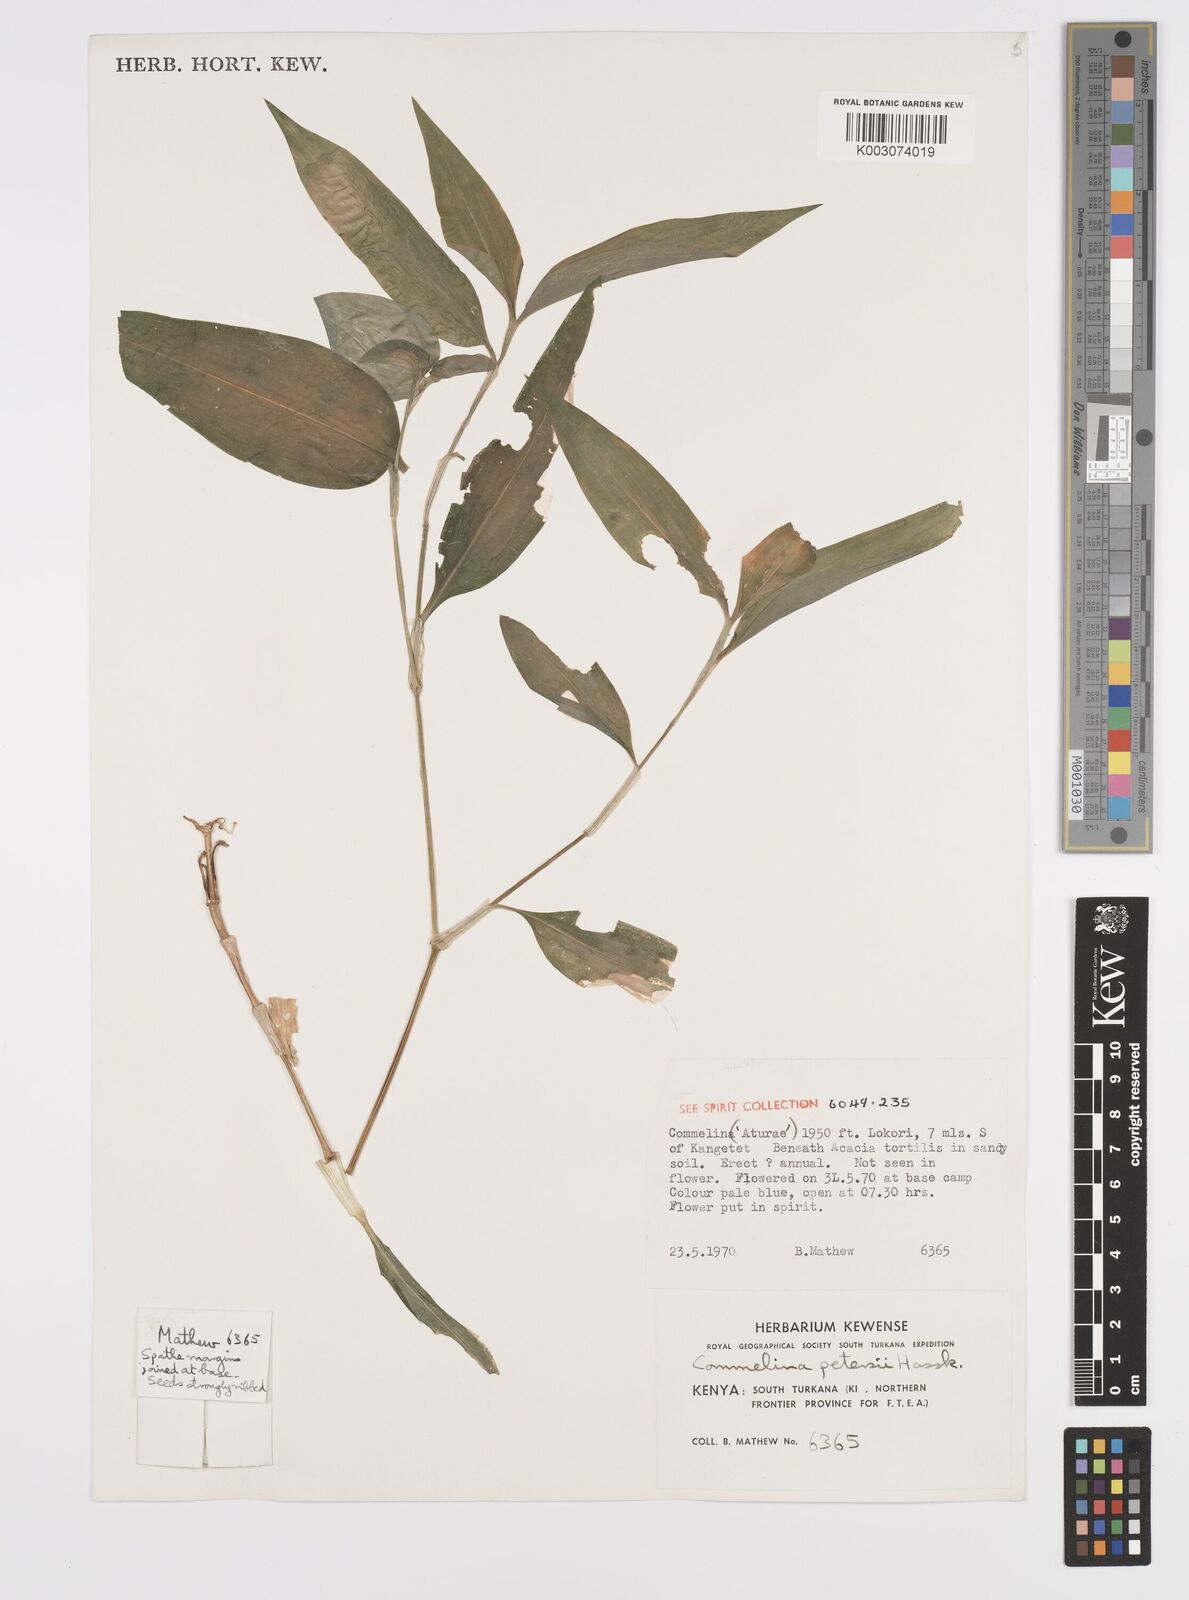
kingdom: Plantae
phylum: Tracheophyta
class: Liliopsida
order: Commelinales
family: Commelinaceae
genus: Commelina
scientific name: Commelina petersii
